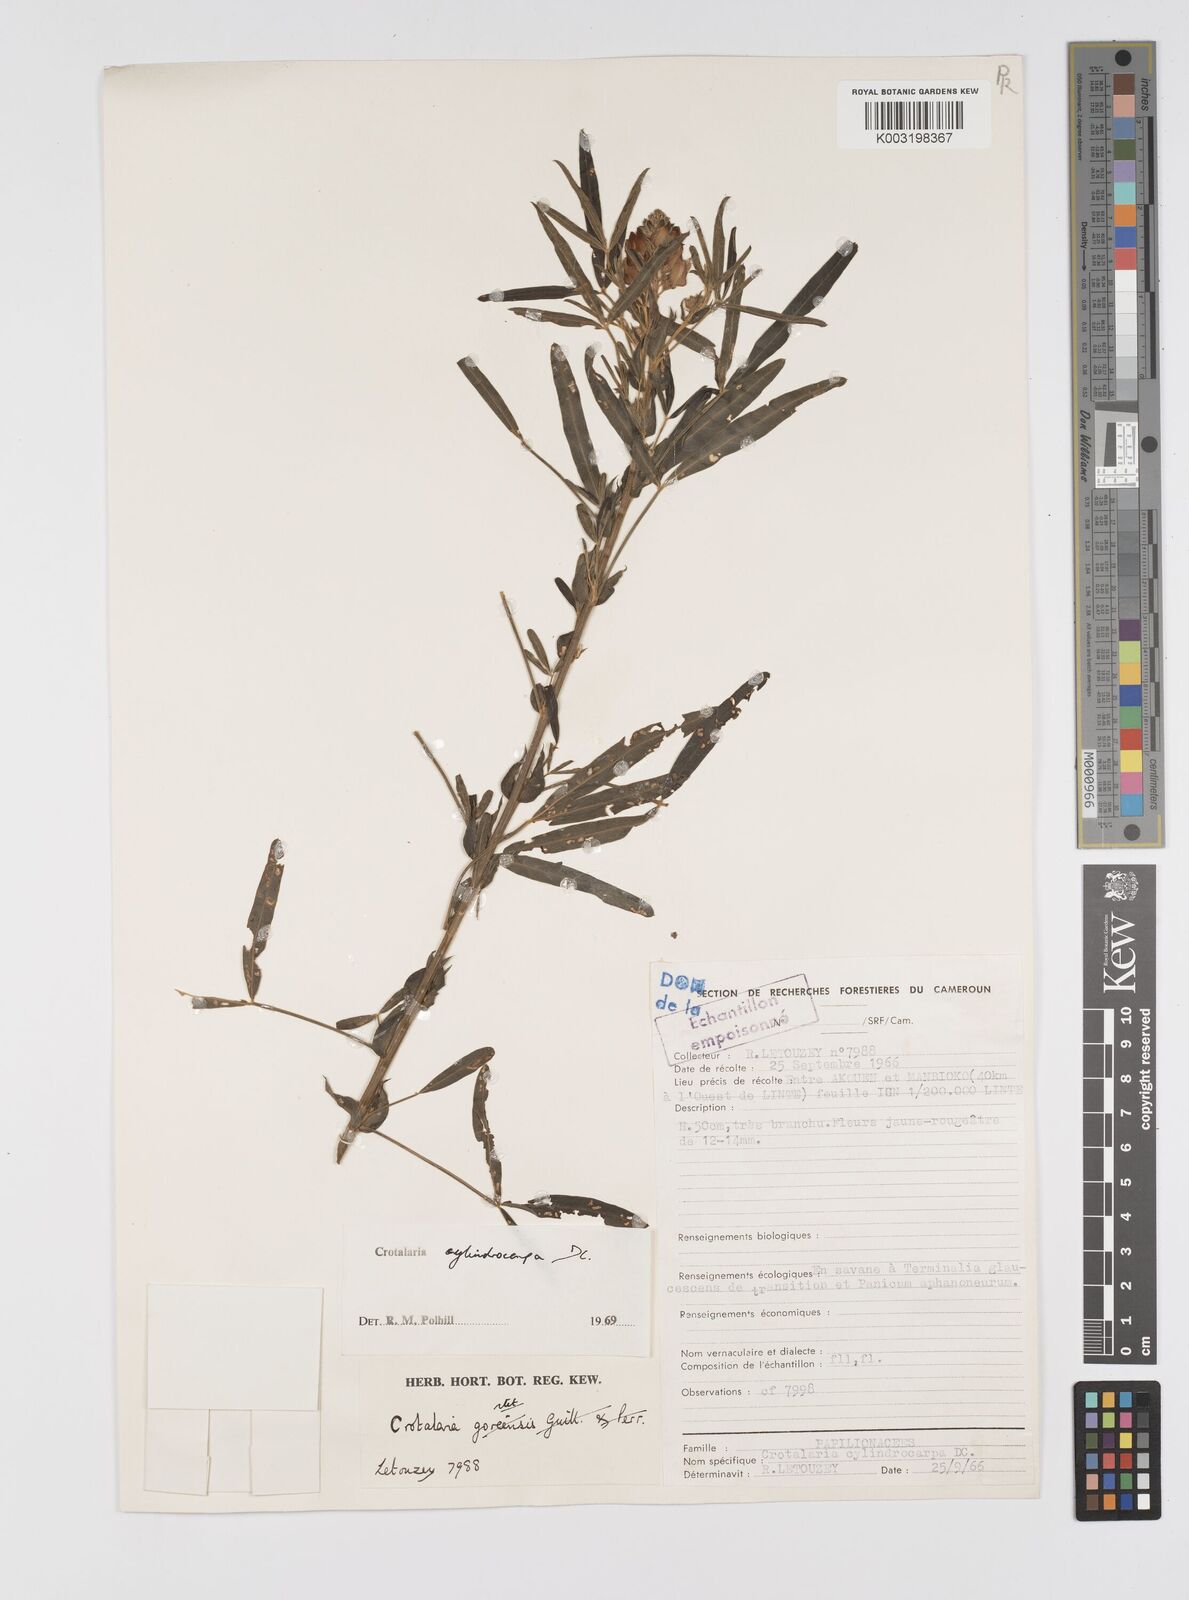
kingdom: Plantae
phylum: Tracheophyta
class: Magnoliopsida
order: Fabales
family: Fabaceae
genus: Crotalaria
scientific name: Crotalaria cylindrocarpa
